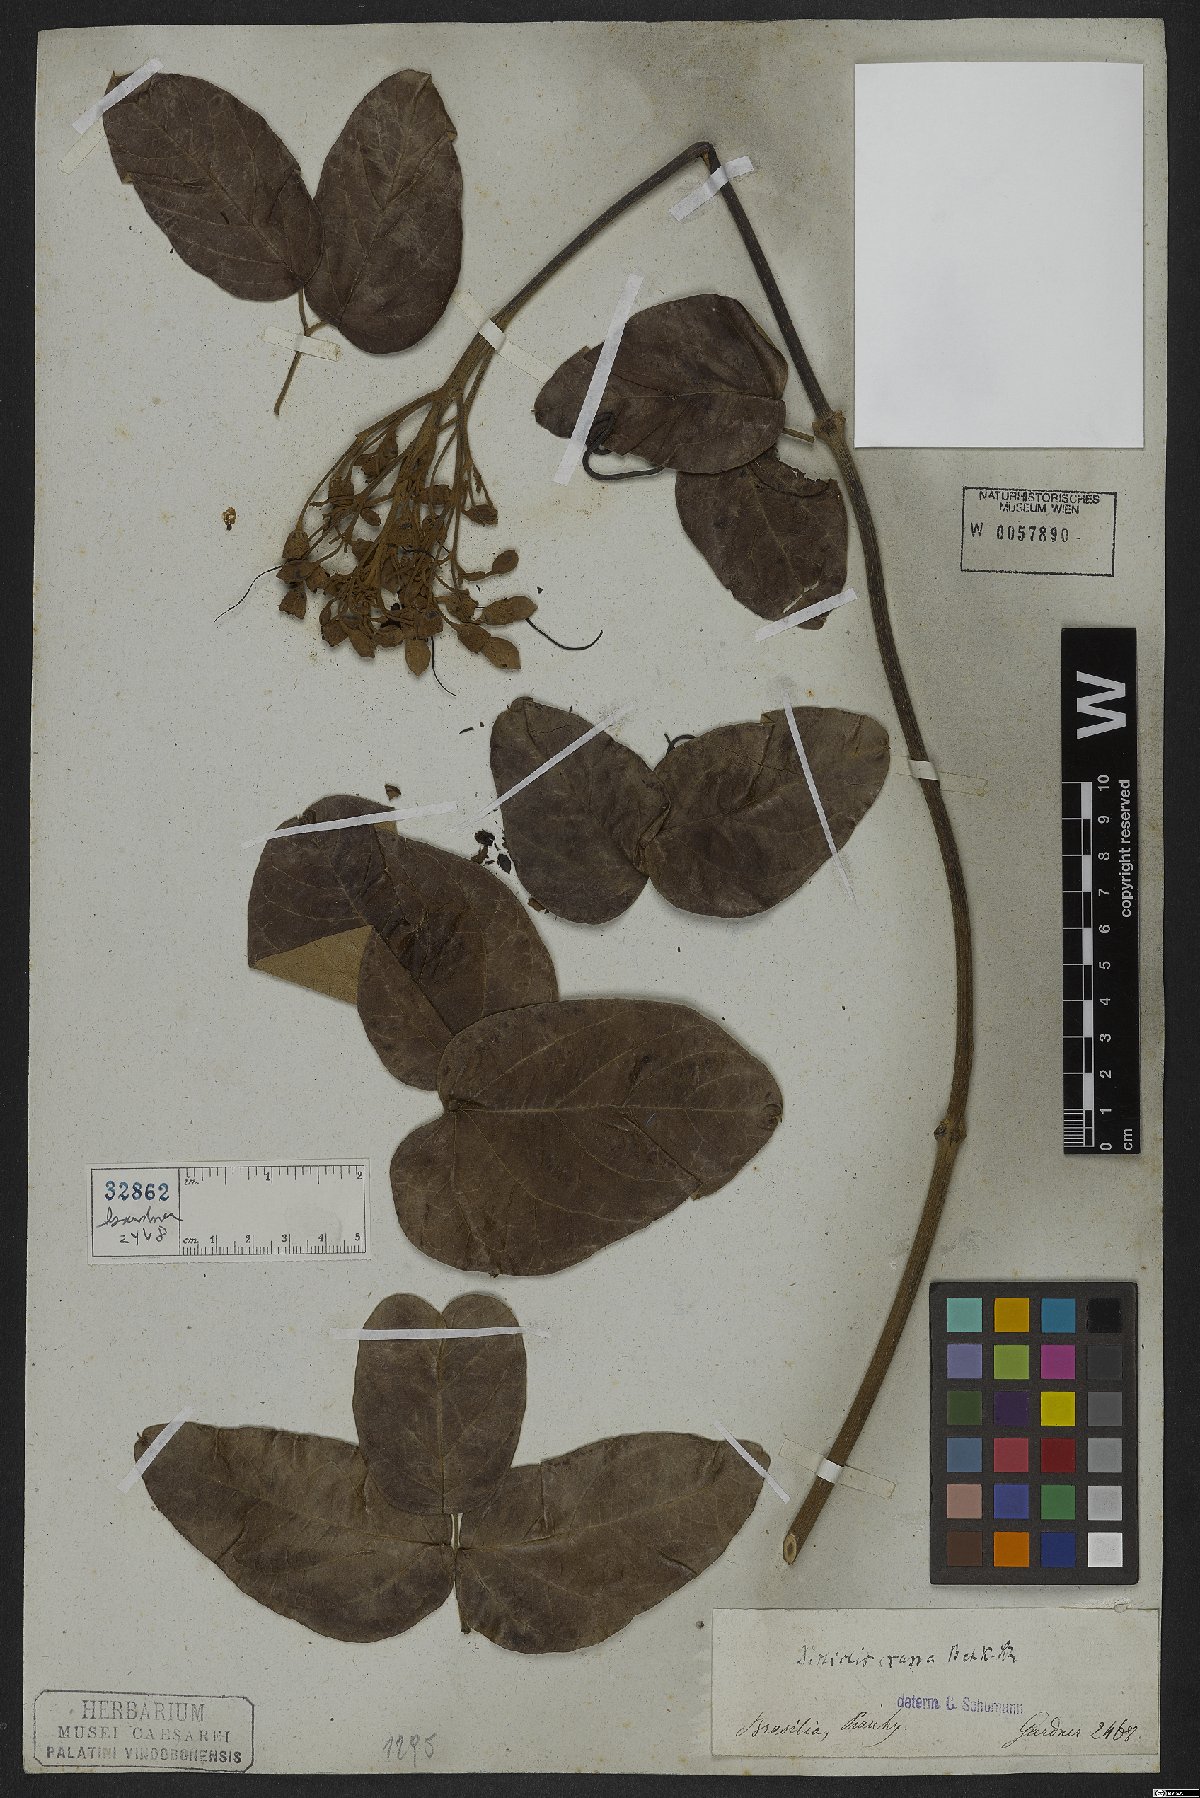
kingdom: Plantae
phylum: Tracheophyta
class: Magnoliopsida
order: Lamiales
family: Bignoniaceae
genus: Fridericia
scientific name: Fridericia crassa
